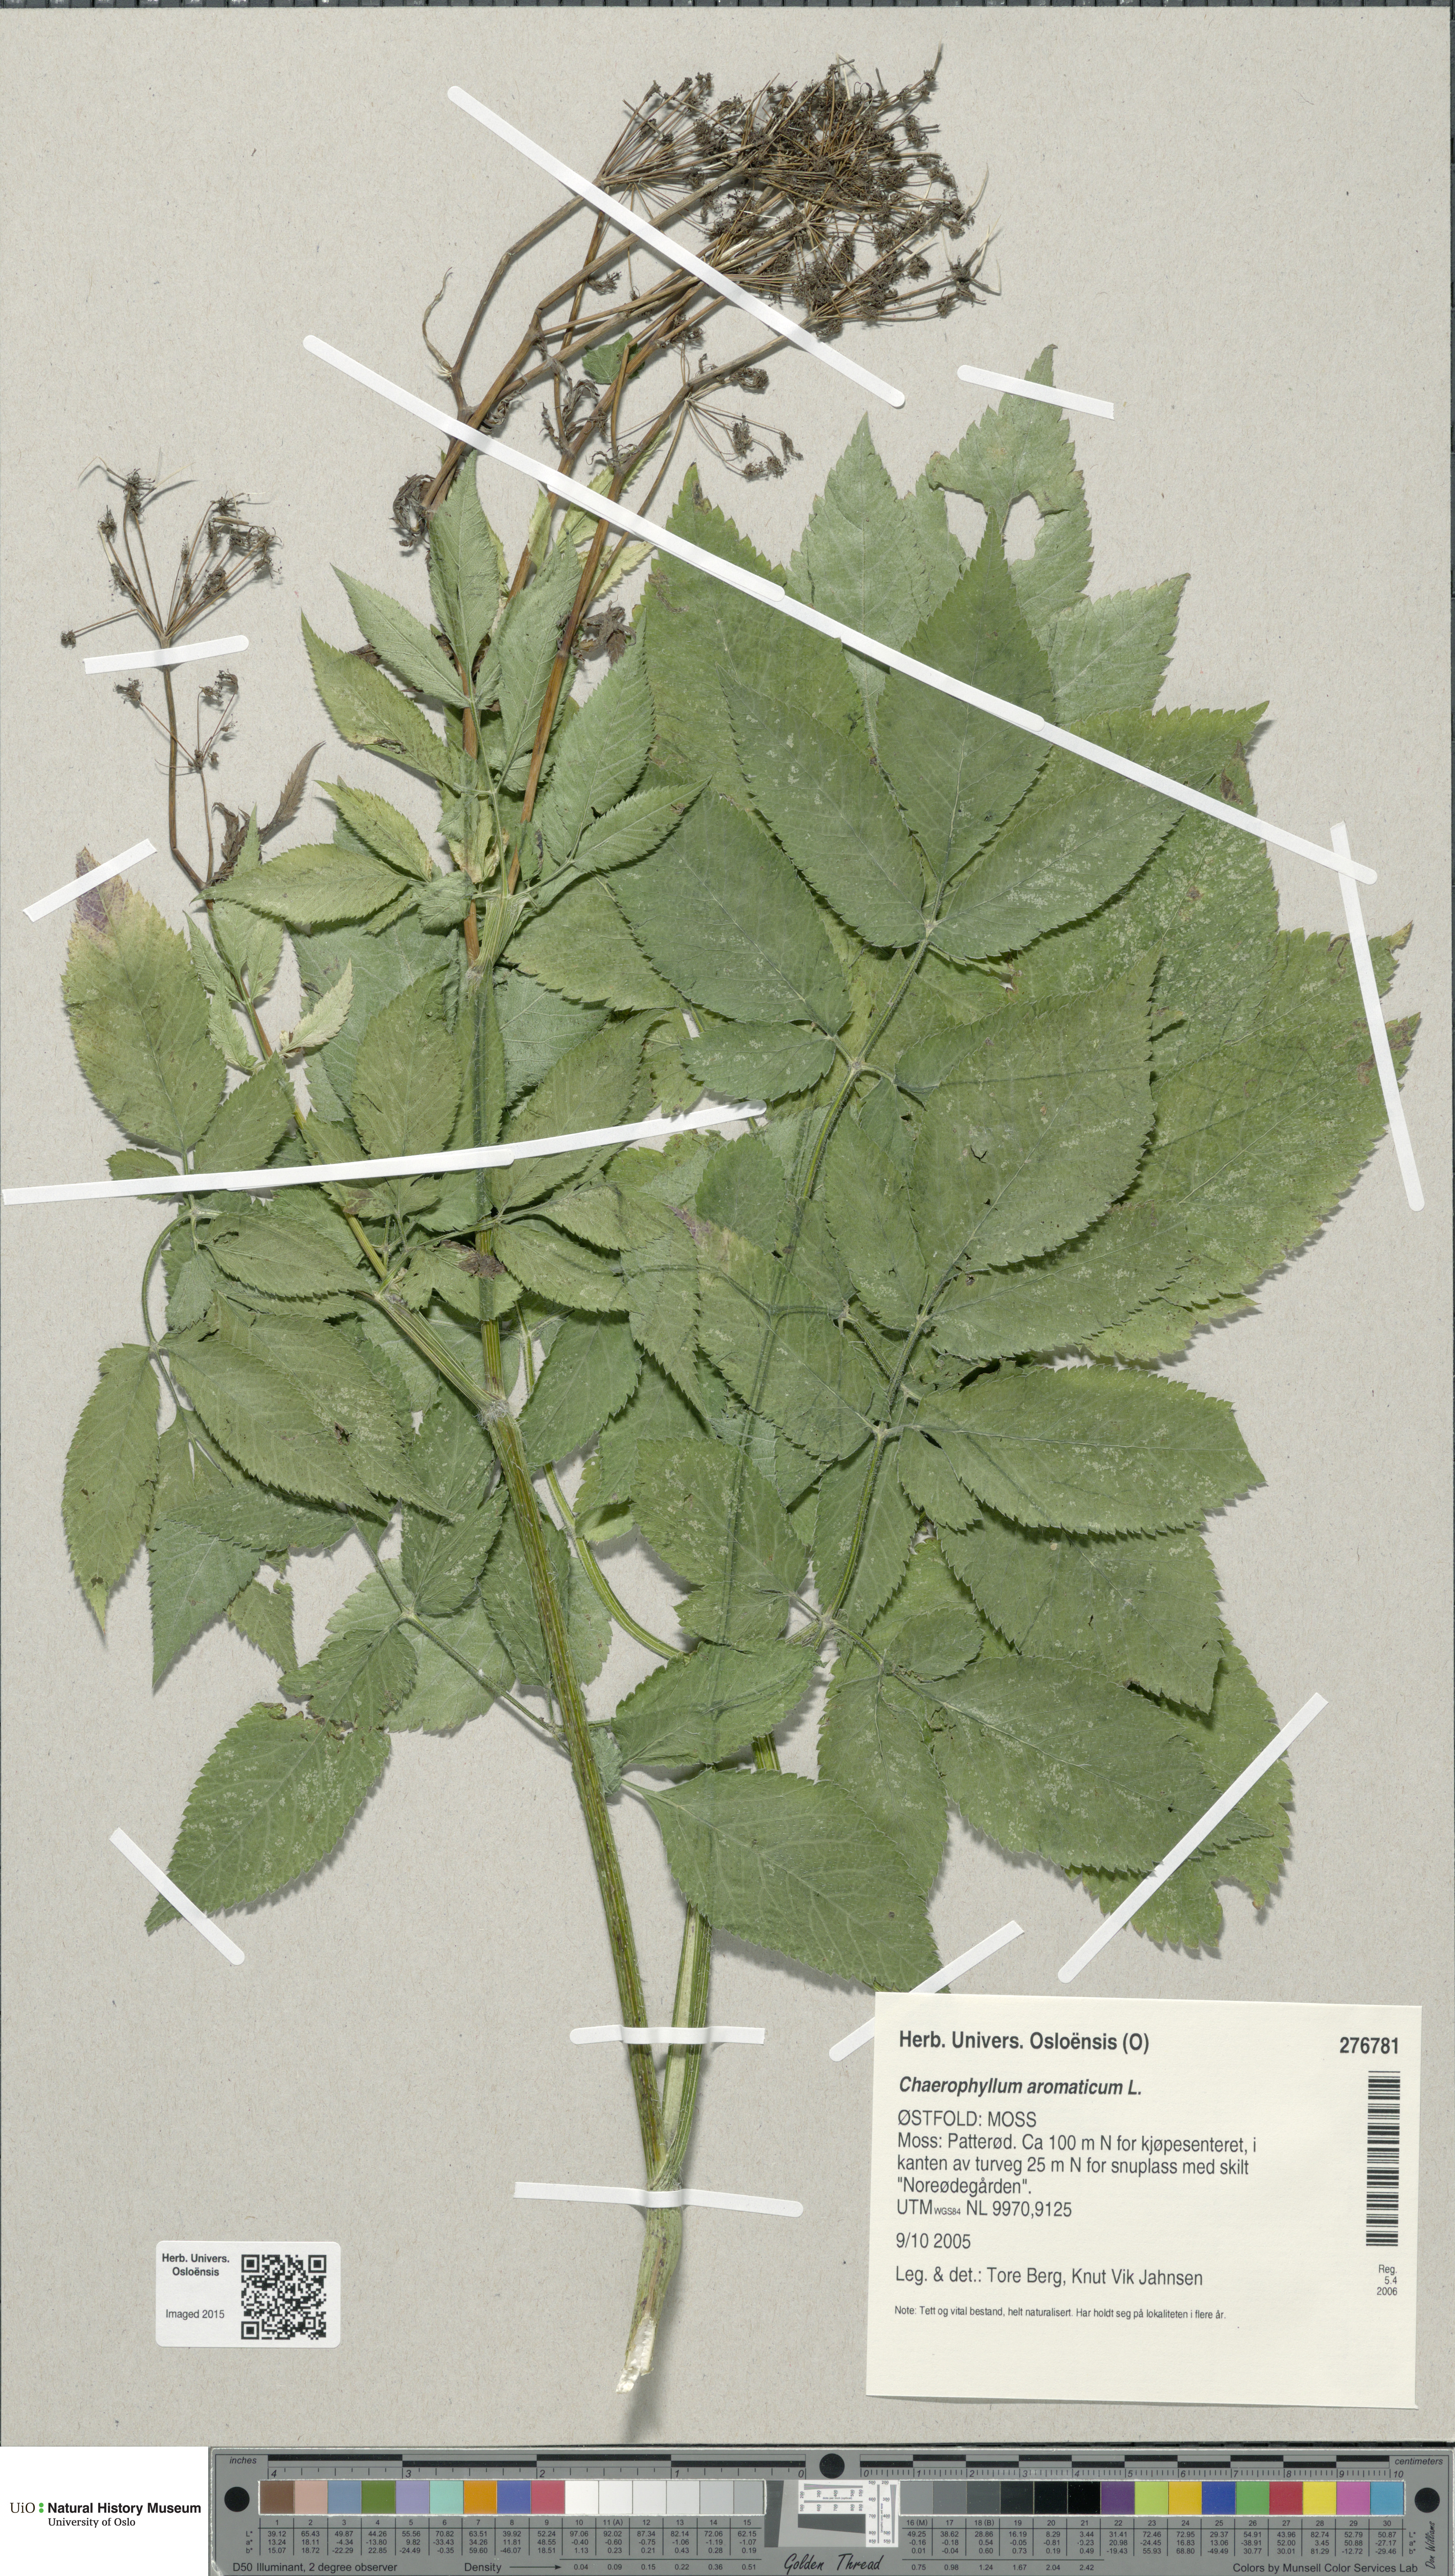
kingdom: Plantae
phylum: Tracheophyta
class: Magnoliopsida
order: Apiales
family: Apiaceae
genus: Chaerophyllum
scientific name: Chaerophyllum aromaticum
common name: Broadleaf chervil
